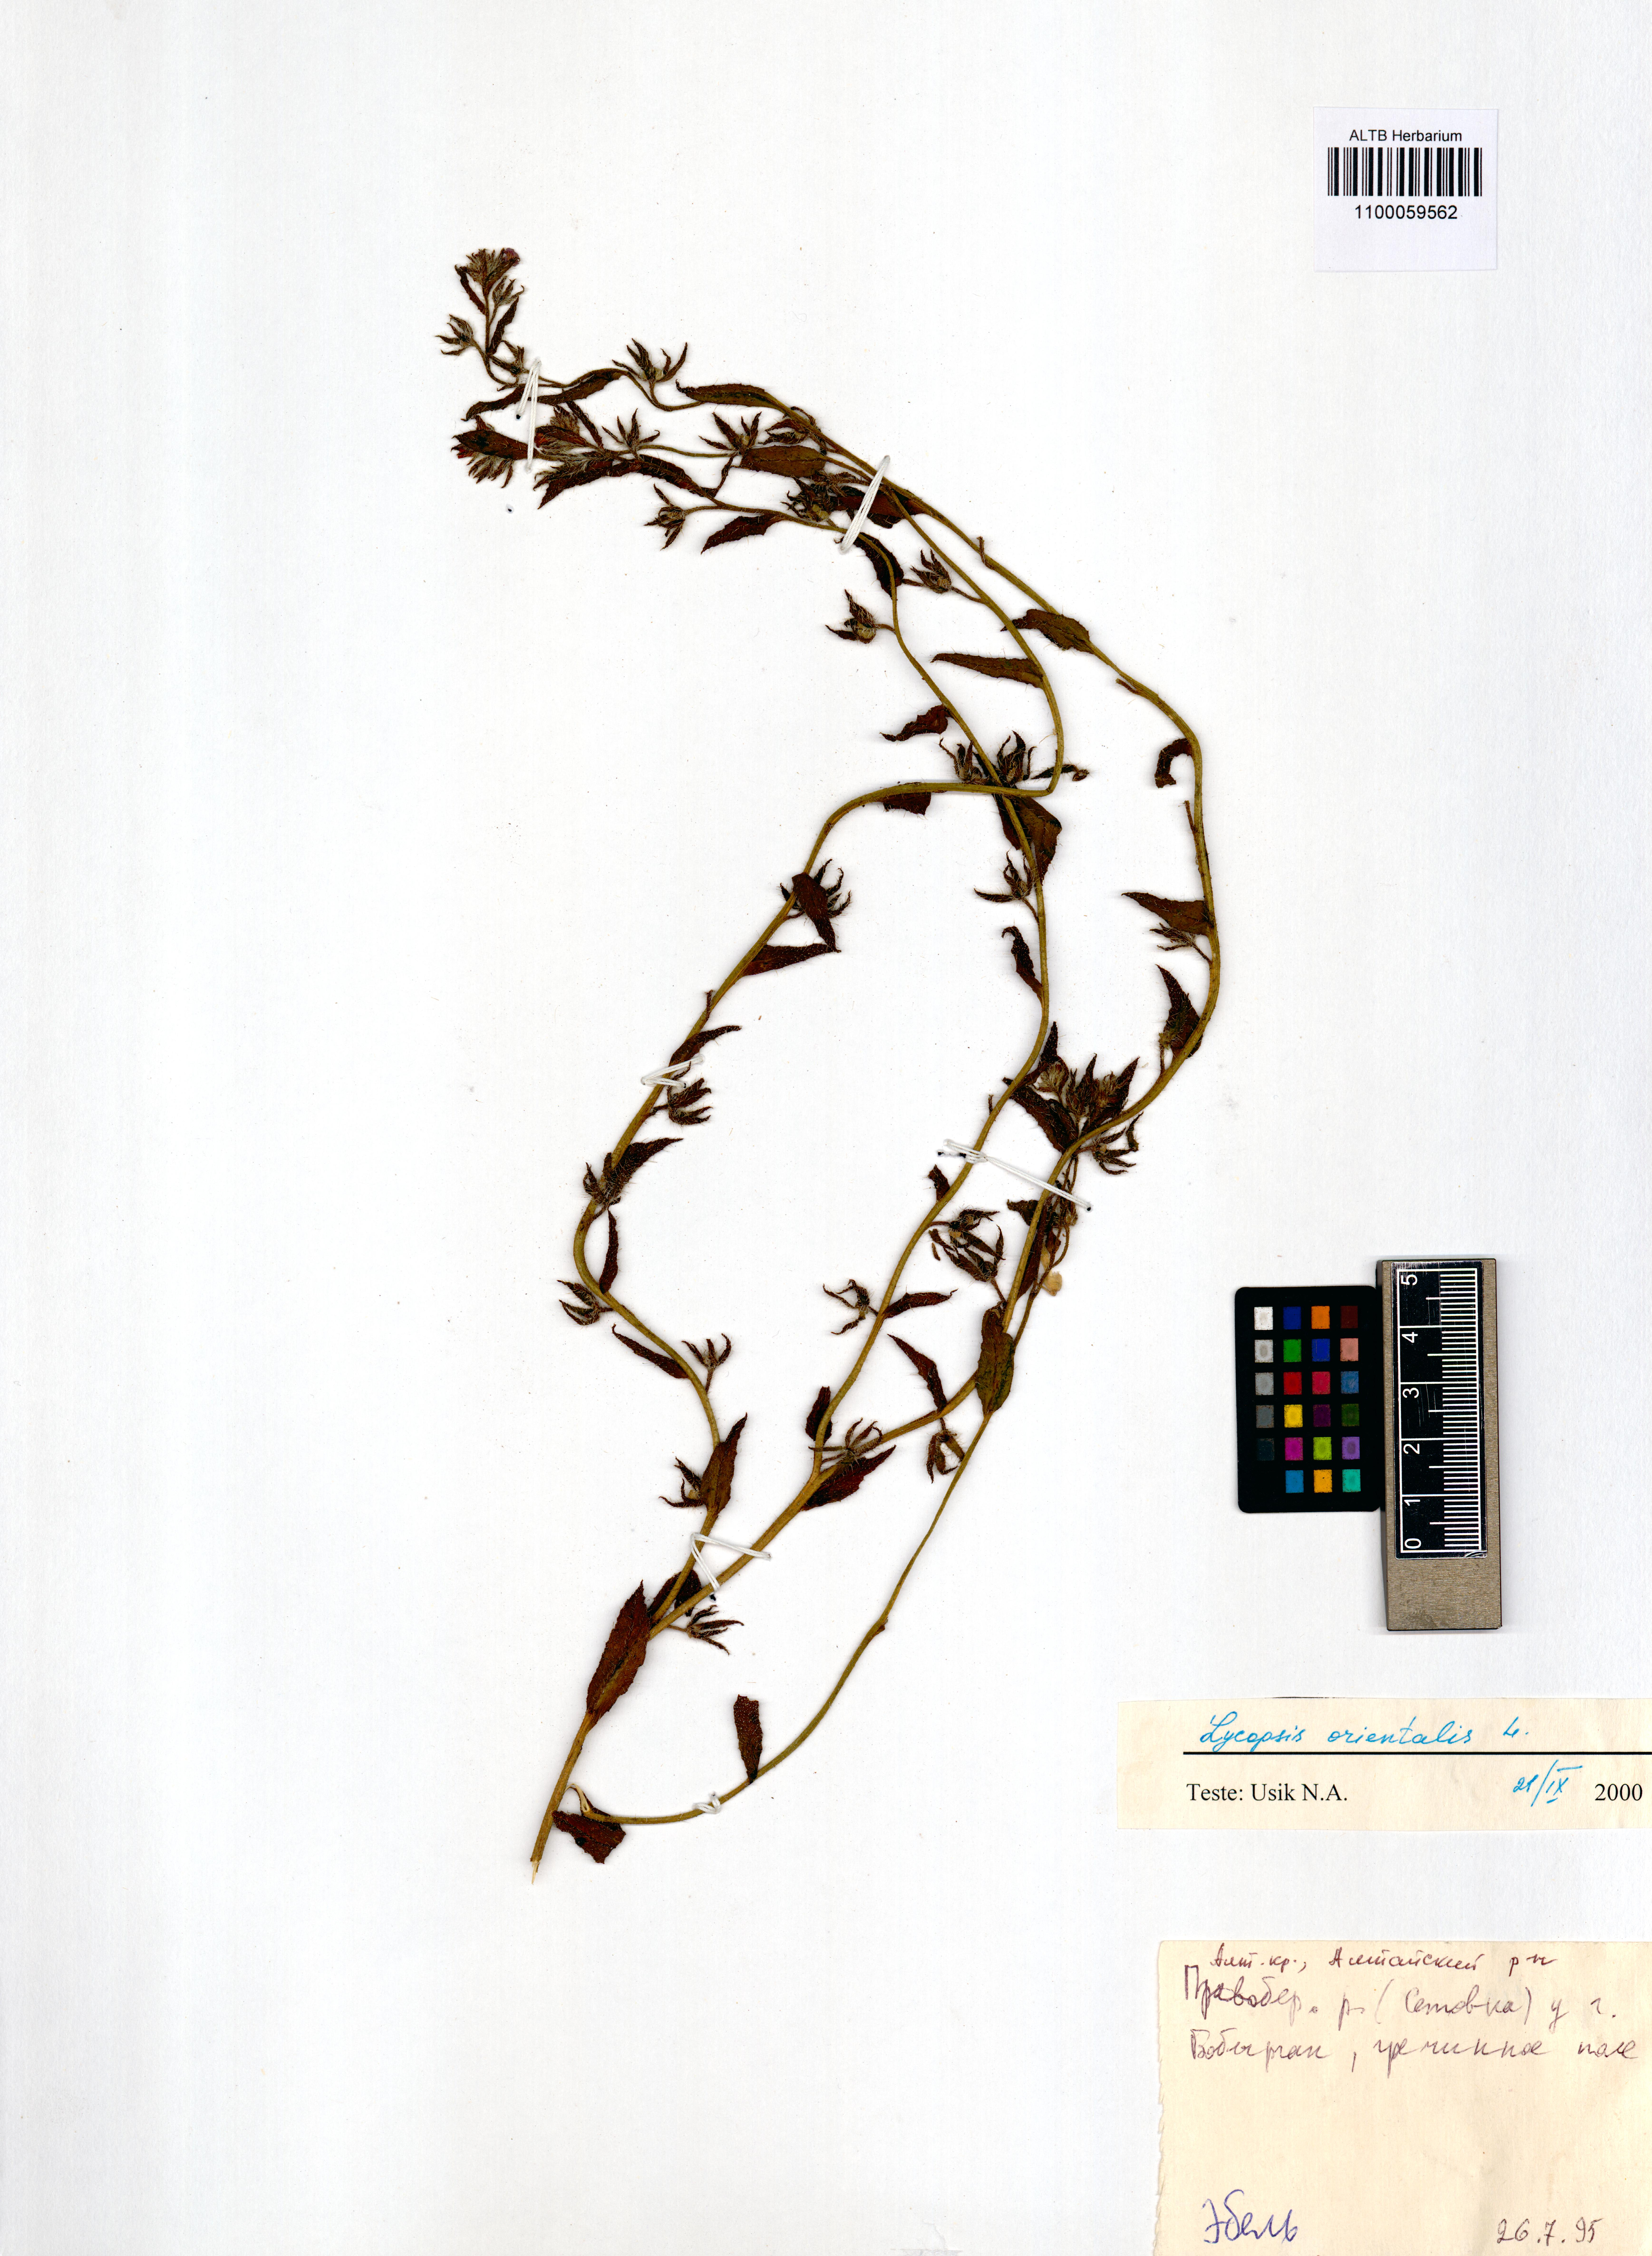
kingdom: Plantae
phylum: Tracheophyta
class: Magnoliopsida
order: Boraginales
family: Boraginaceae
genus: Lycopsis
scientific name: Lycopsis arvensis
